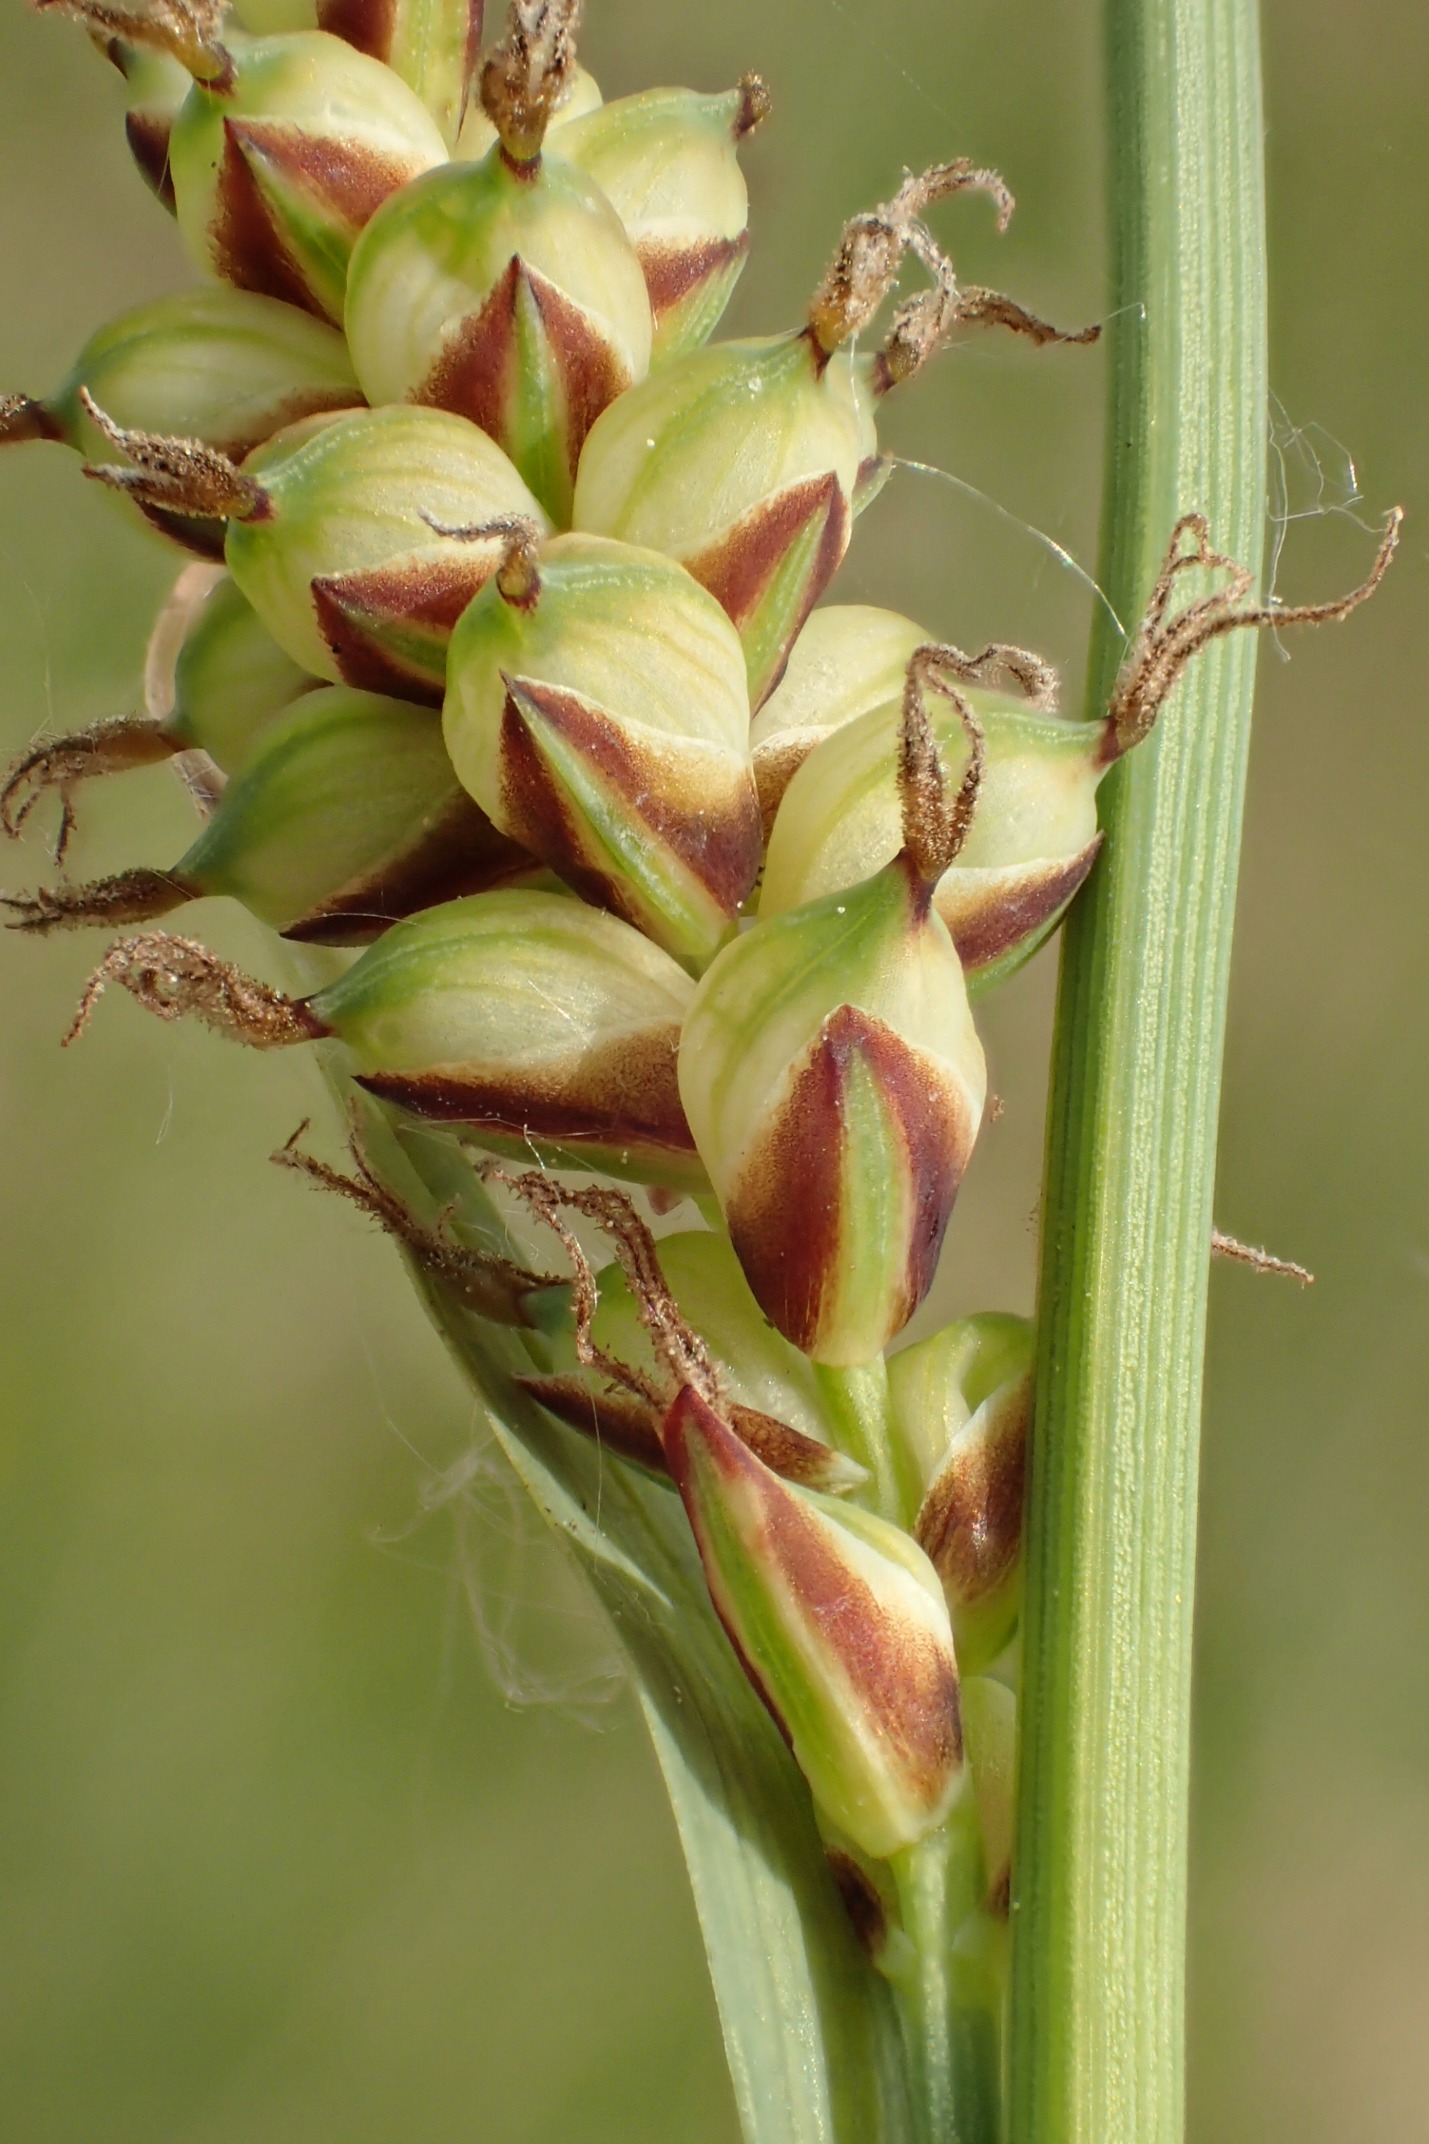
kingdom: Plantae
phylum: Tracheophyta
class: Liliopsida
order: Poales
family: Cyperaceae
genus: Carex
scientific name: Carex panicea
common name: Hirse-star
